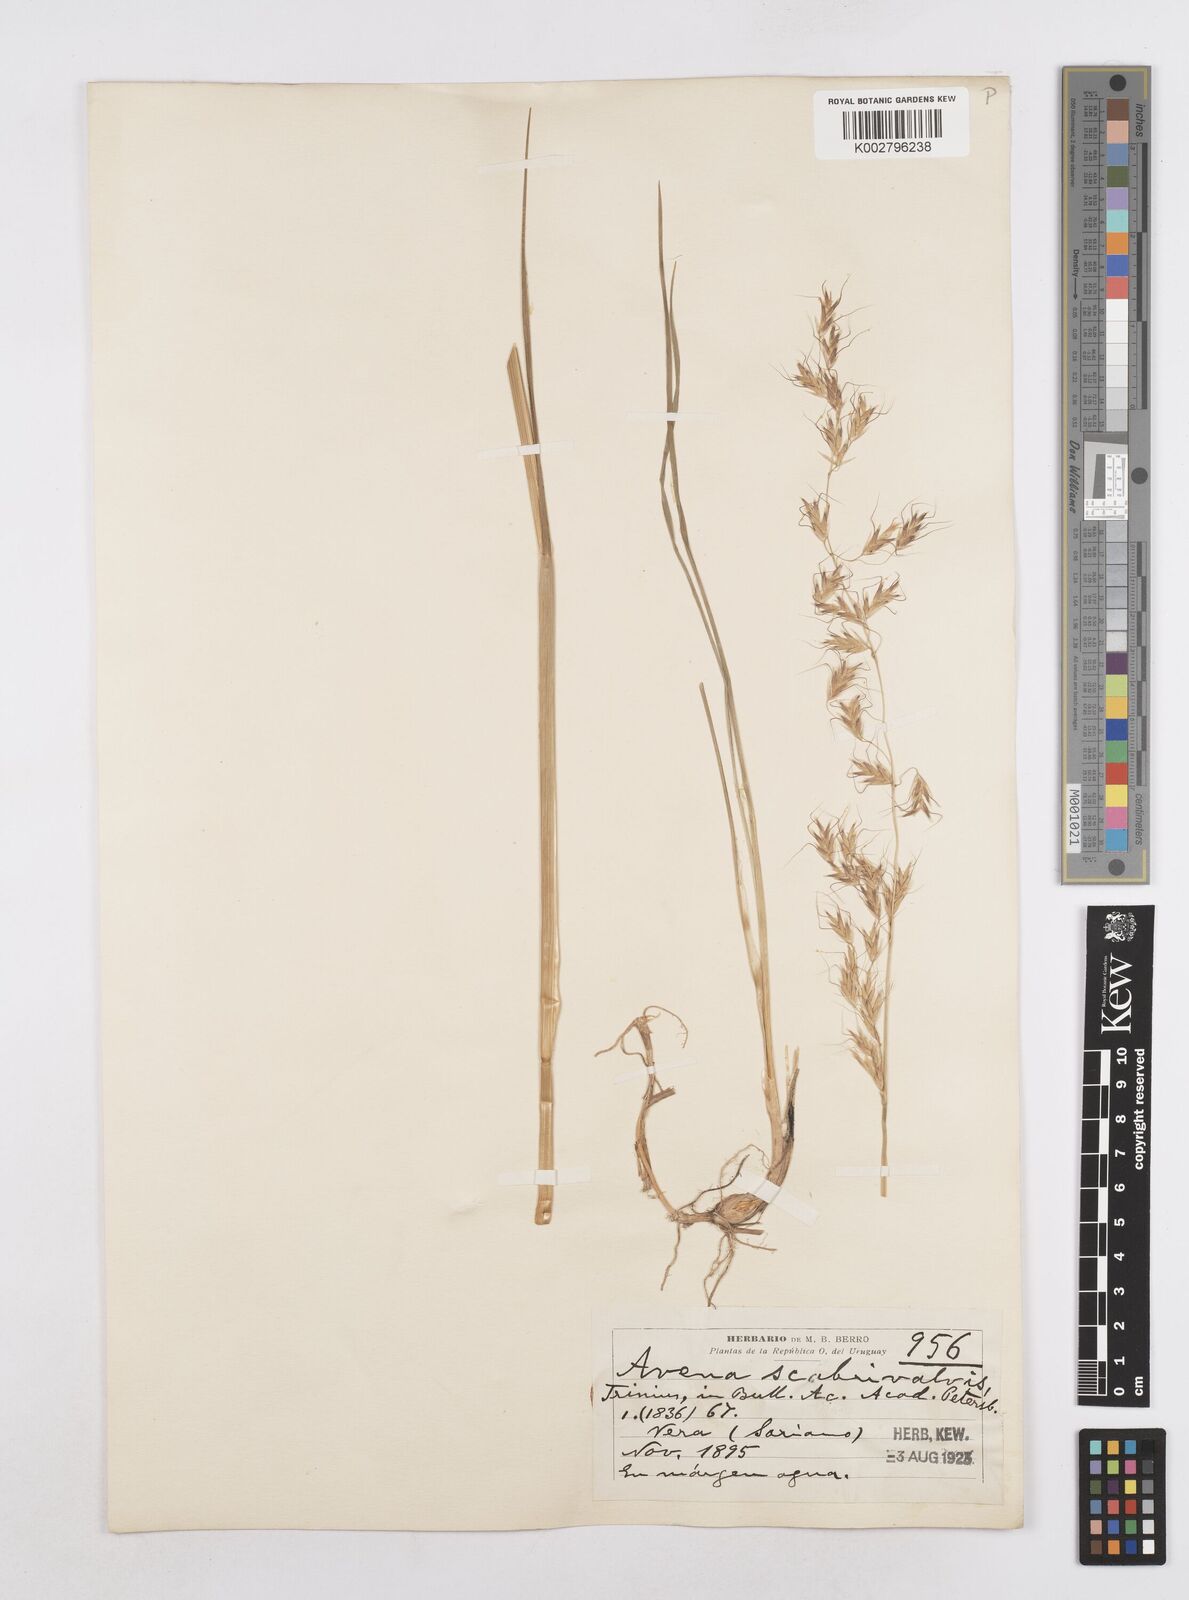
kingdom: Plantae
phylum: Tracheophyta
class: Liliopsida
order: Poales
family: Poaceae
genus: Helictotrichon
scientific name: Helictotrichon
